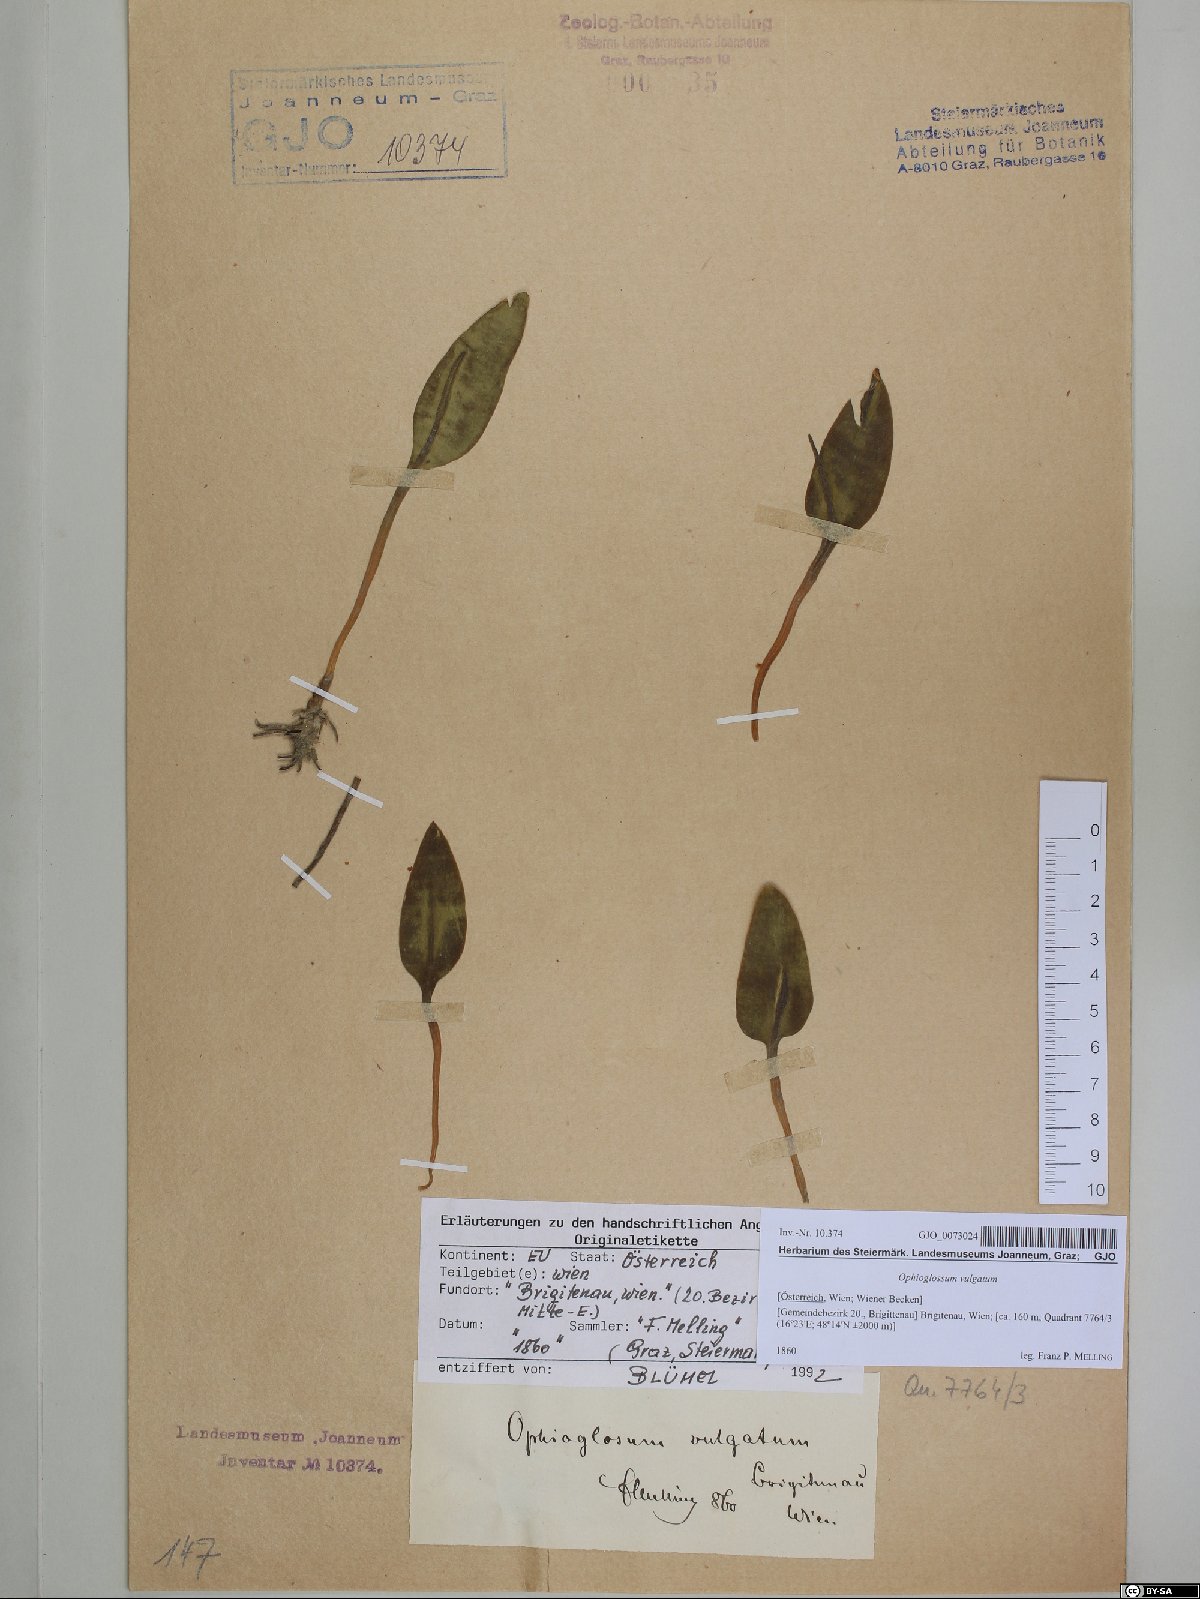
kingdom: Plantae
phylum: Tracheophyta
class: Polypodiopsida
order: Ophioglossales
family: Ophioglossaceae
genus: Ophioglossum
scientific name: Ophioglossum vulgatum
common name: Adder's-tongue
